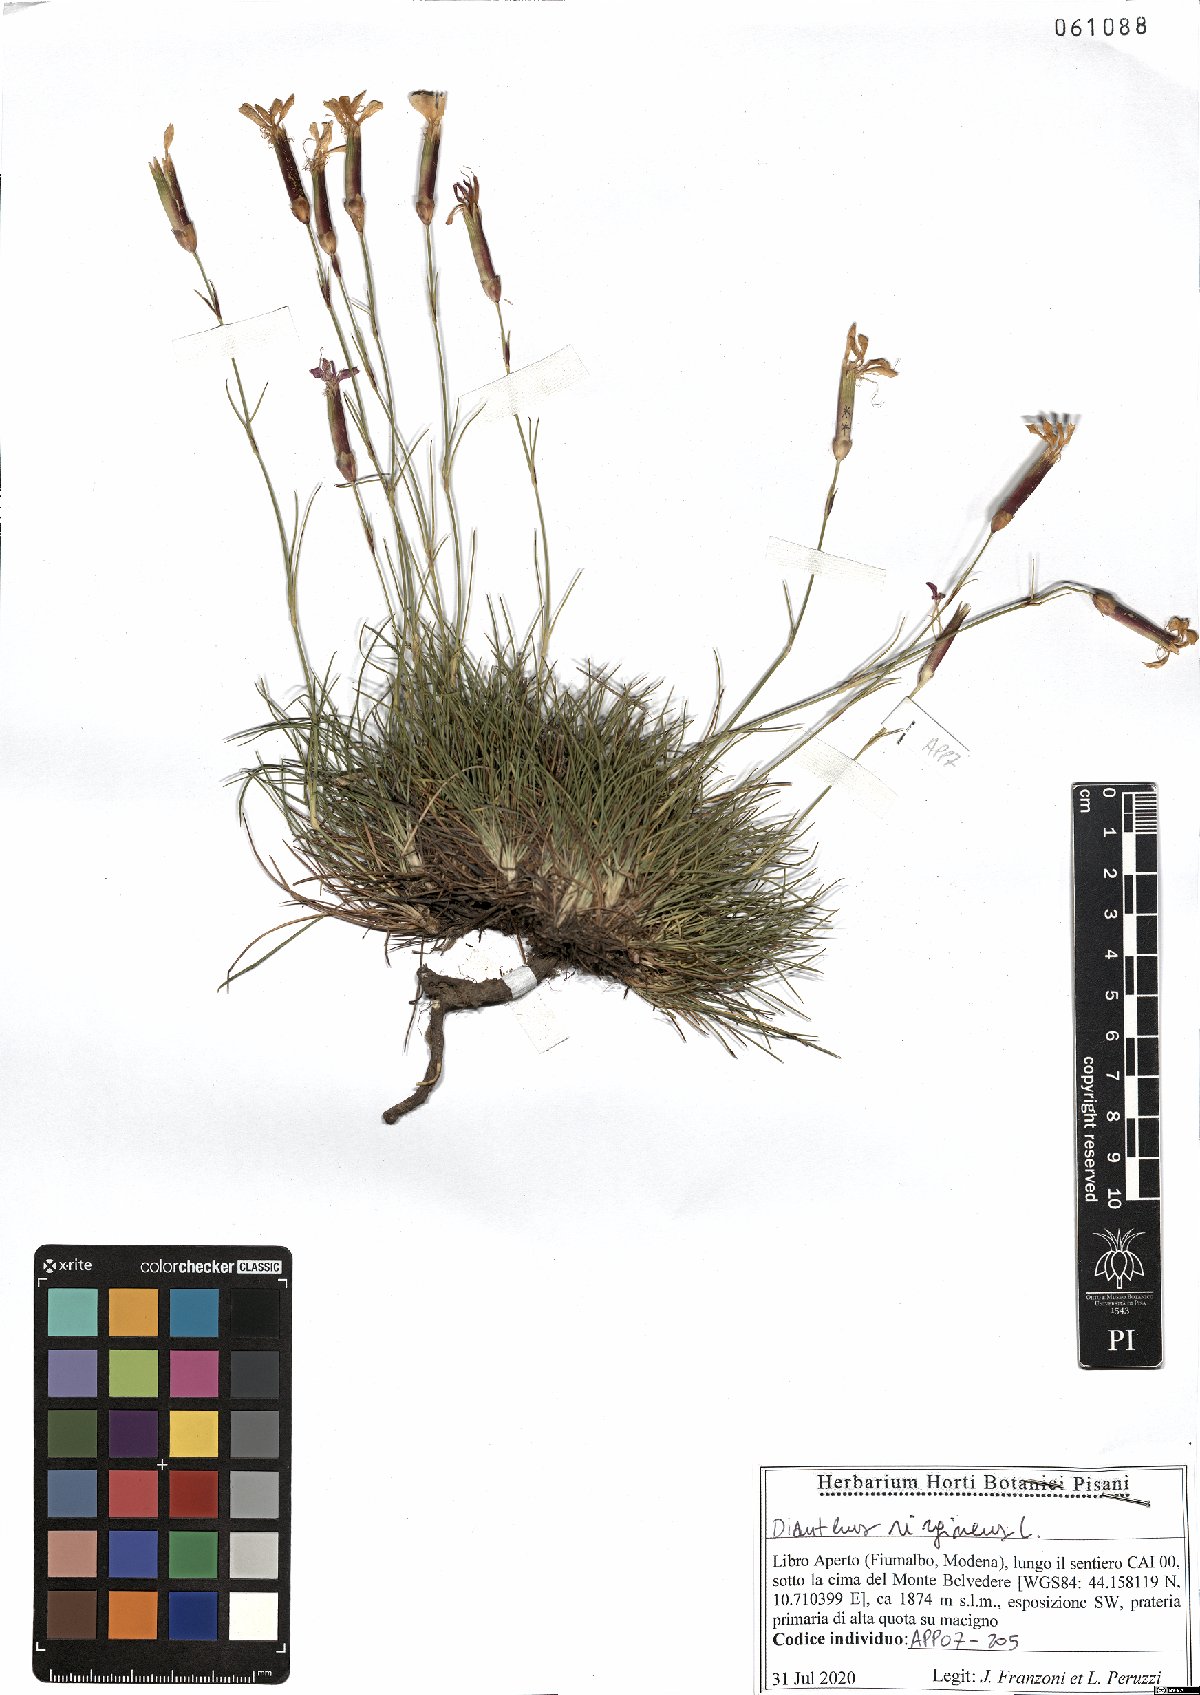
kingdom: Plantae
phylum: Tracheophyta
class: Magnoliopsida
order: Caryophyllales
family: Caryophyllaceae
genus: Dianthus
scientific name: Dianthus virgineus
